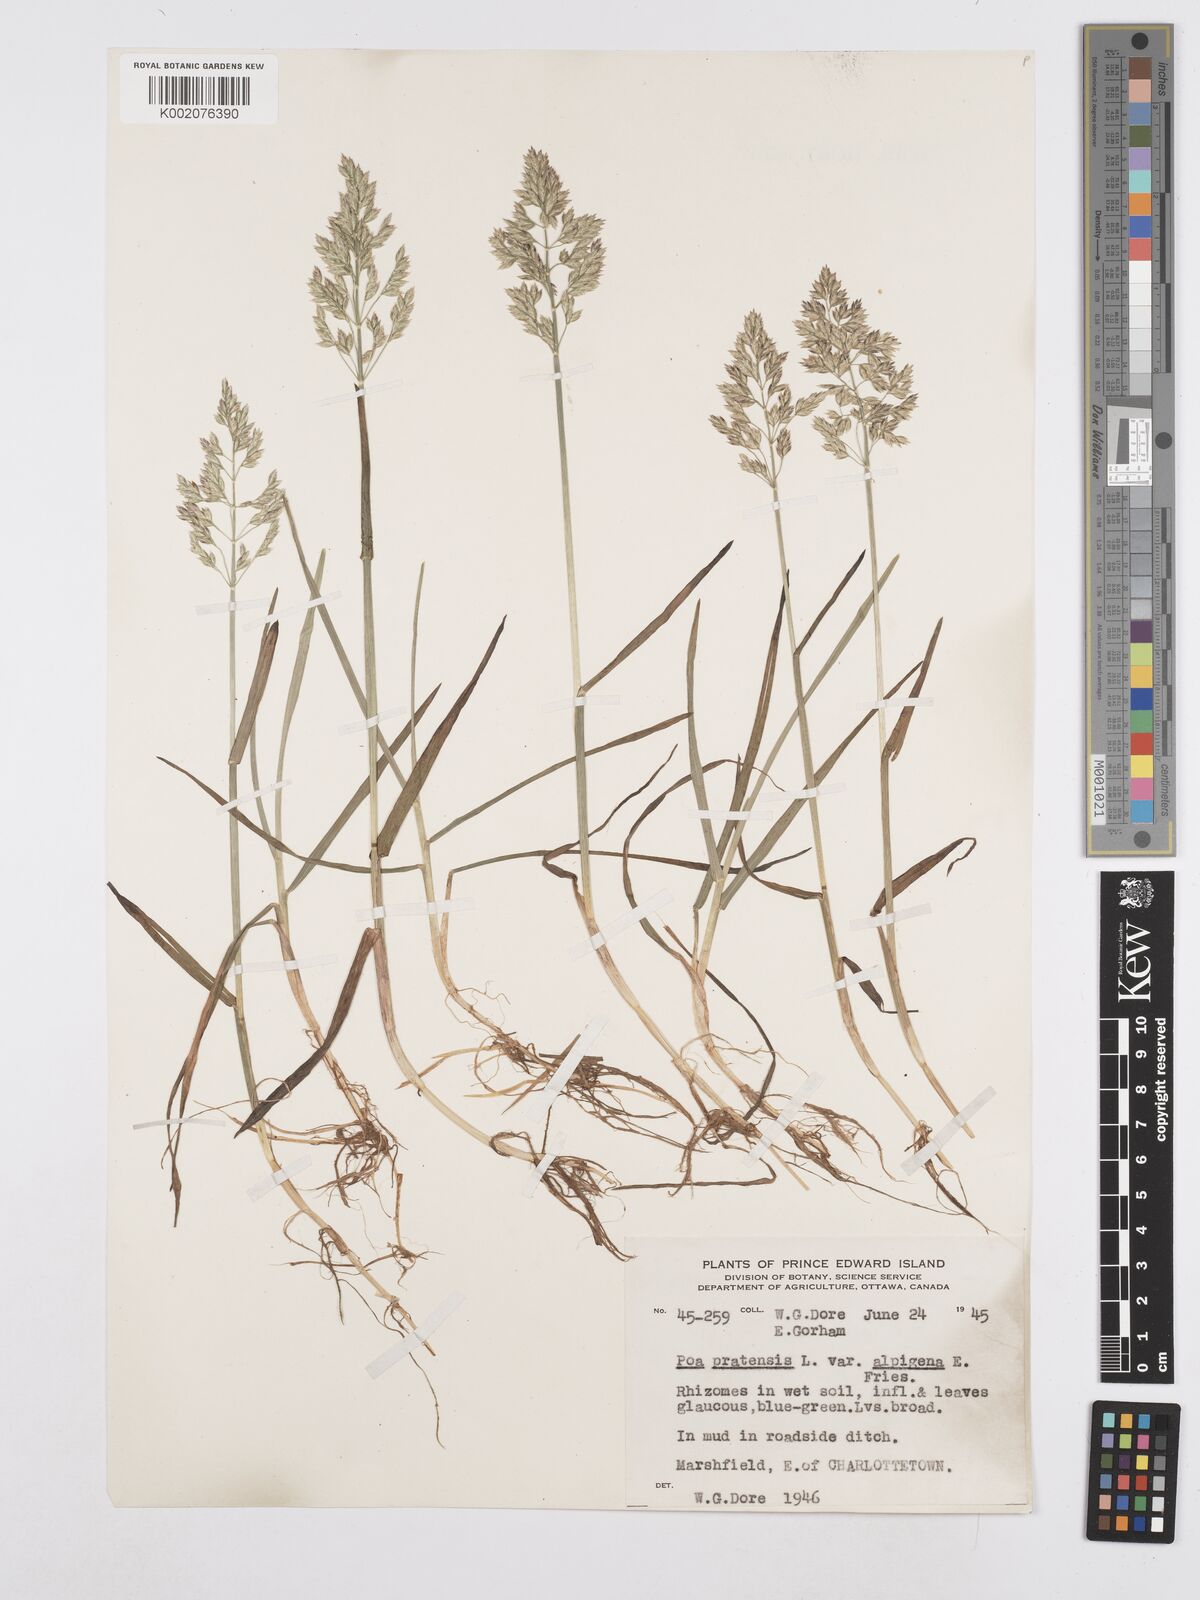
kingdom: Plantae
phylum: Tracheophyta
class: Liliopsida
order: Poales
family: Poaceae
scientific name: Poaceae
